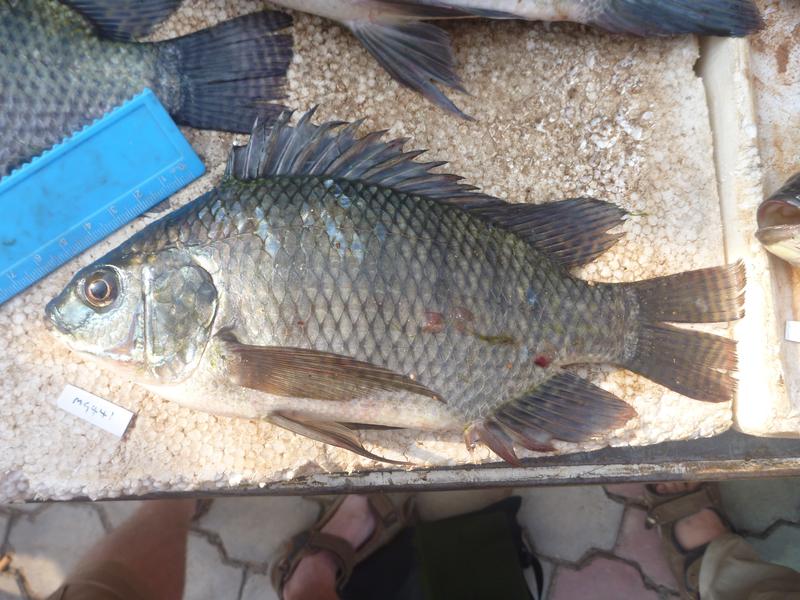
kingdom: Animalia
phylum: Chordata
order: Perciformes
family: Cichlidae
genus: Oreochromis
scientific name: Oreochromis niloticus
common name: Nile tilapia
